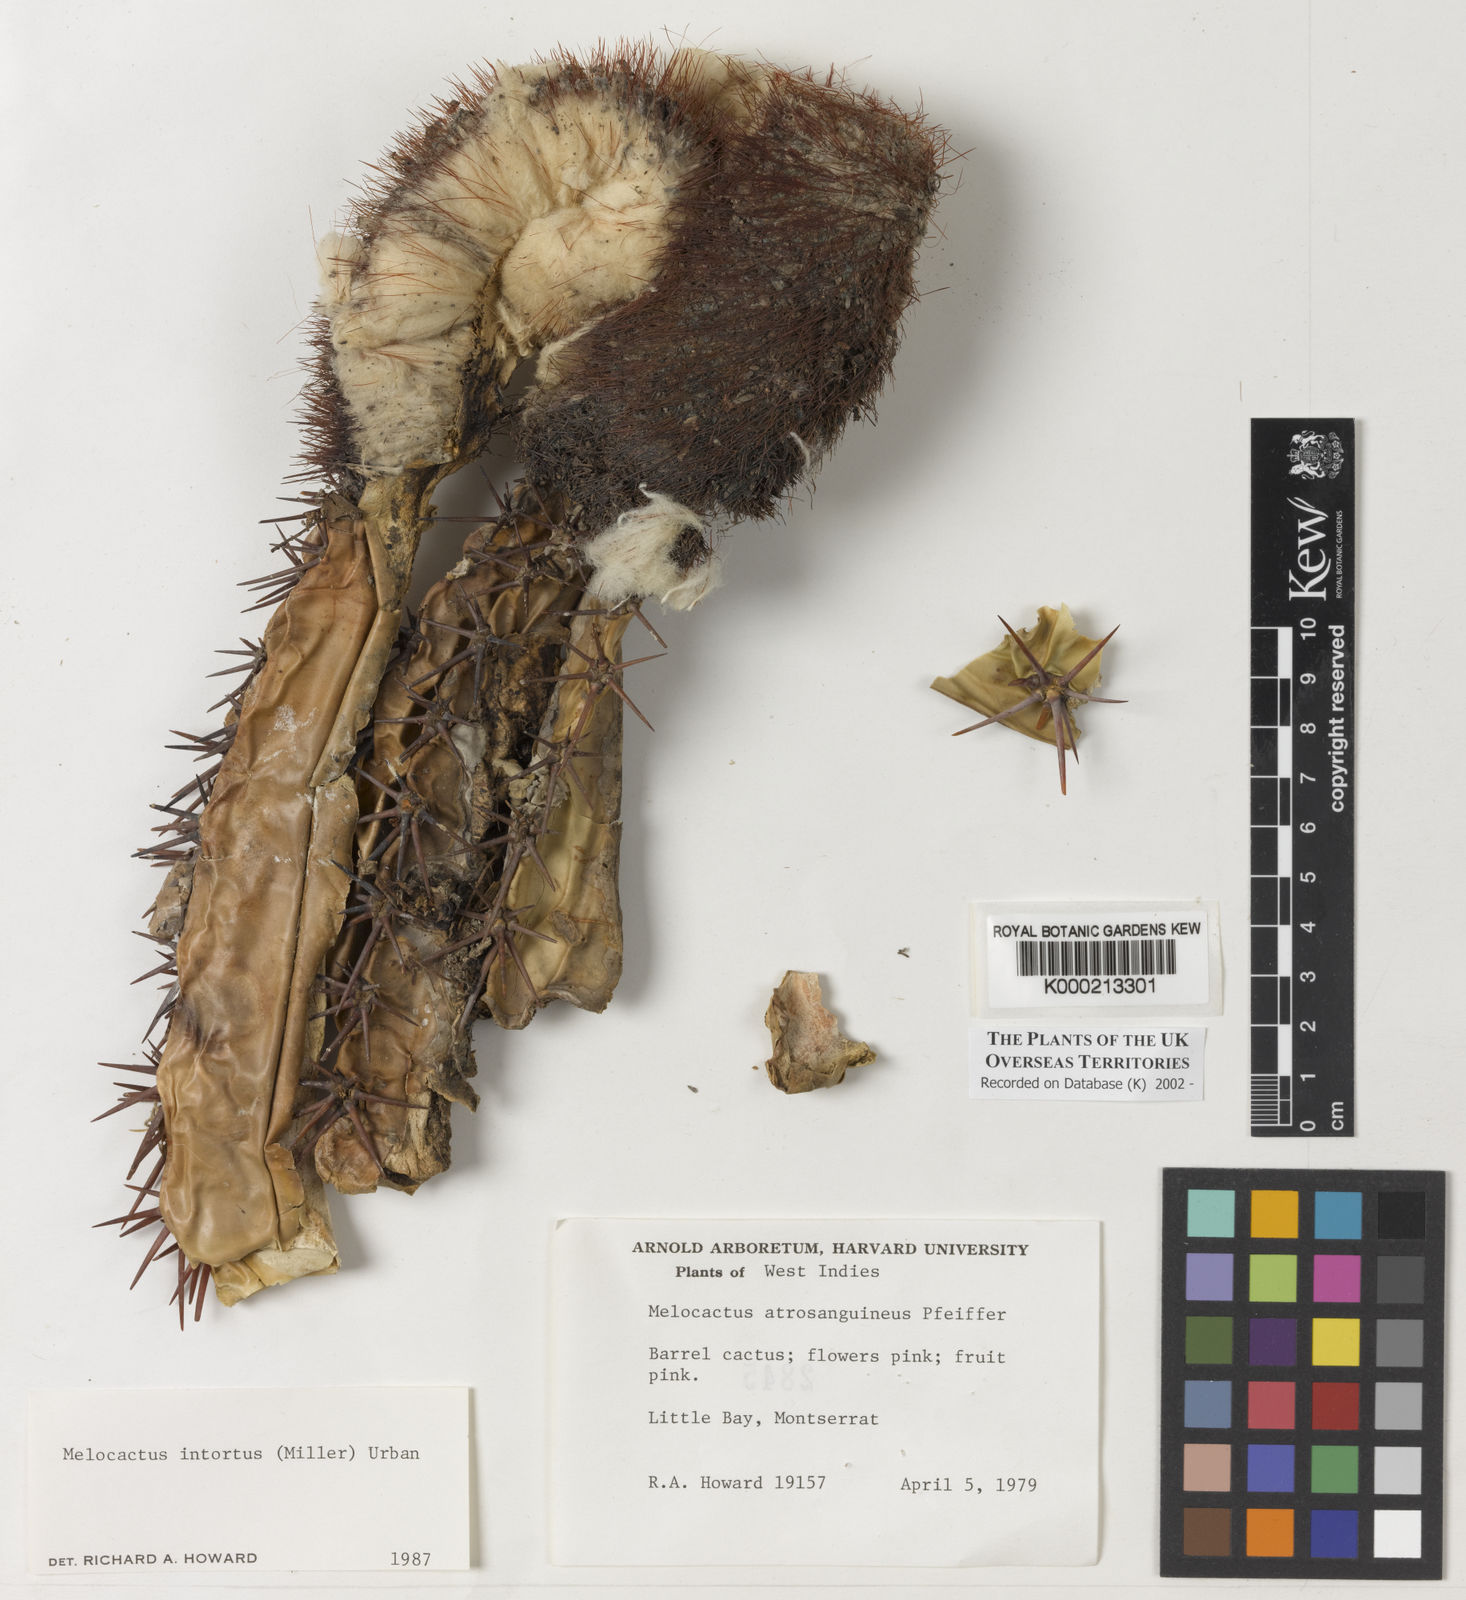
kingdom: Plantae
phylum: Tracheophyta
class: Magnoliopsida
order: Caryophyllales
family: Cactaceae
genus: Melocactus
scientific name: Melocactus
